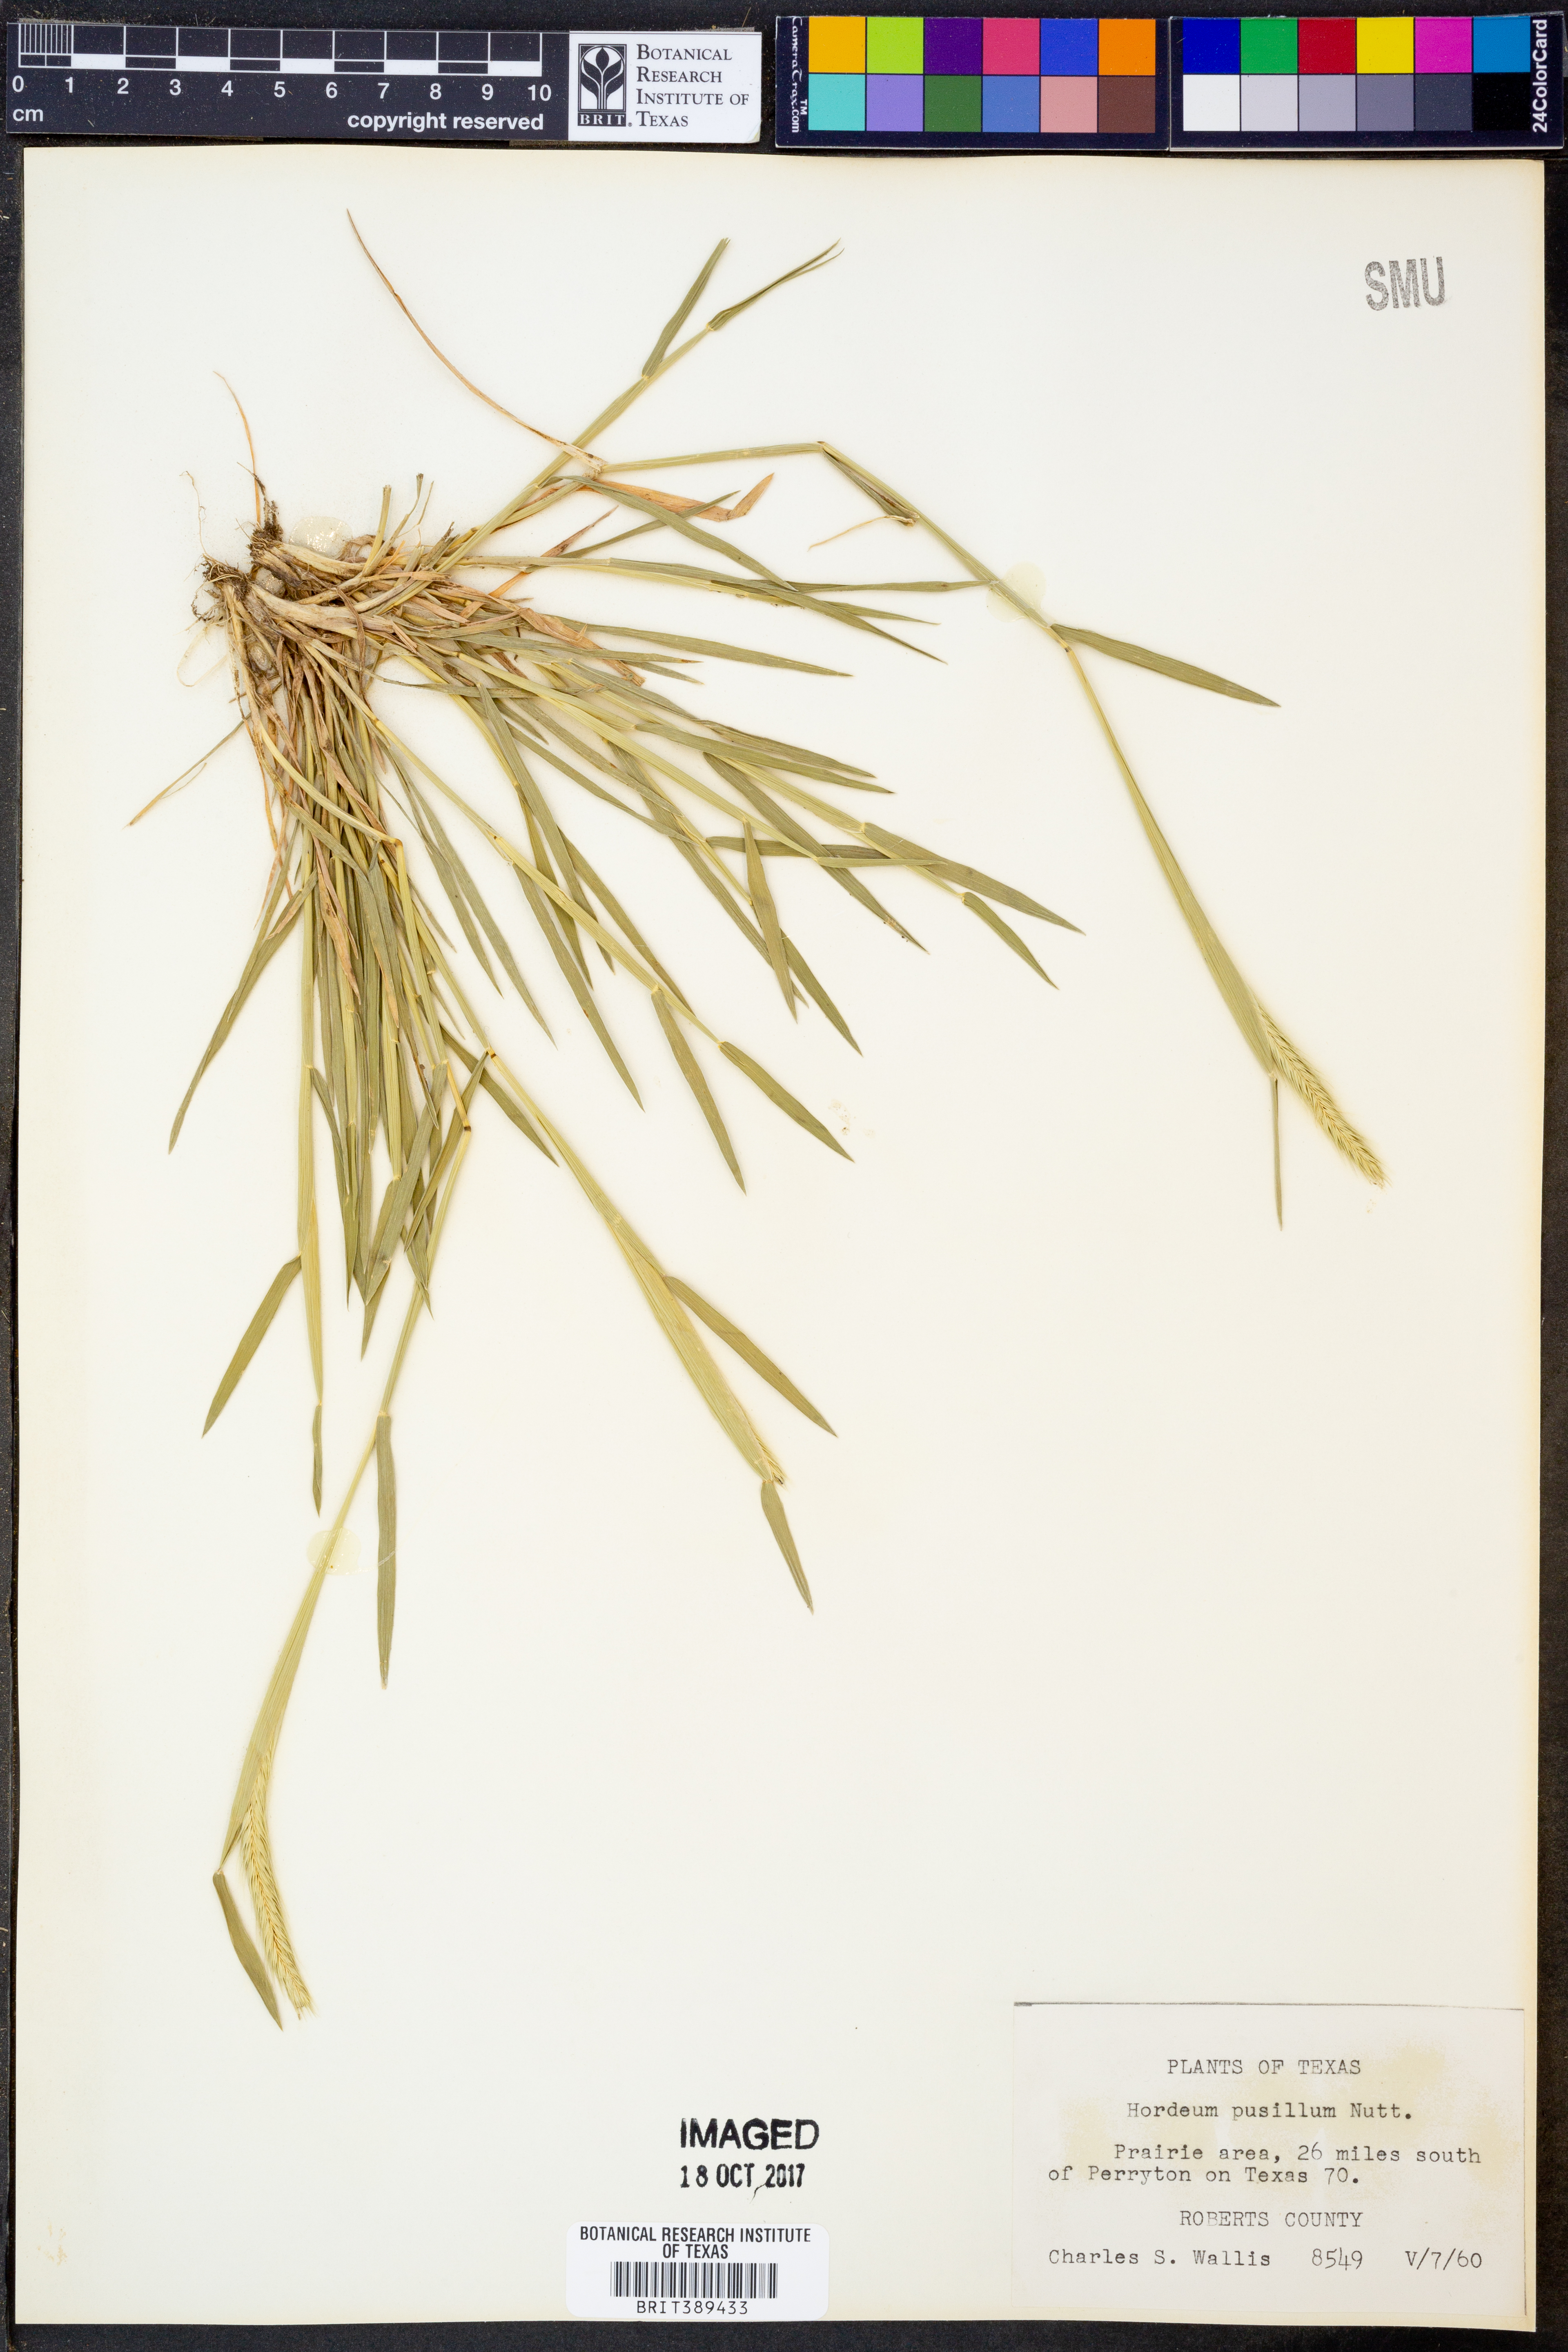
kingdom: Plantae
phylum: Tracheophyta
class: Liliopsida
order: Poales
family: Poaceae
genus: Hordeum
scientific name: Hordeum pusillum
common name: Little barley
